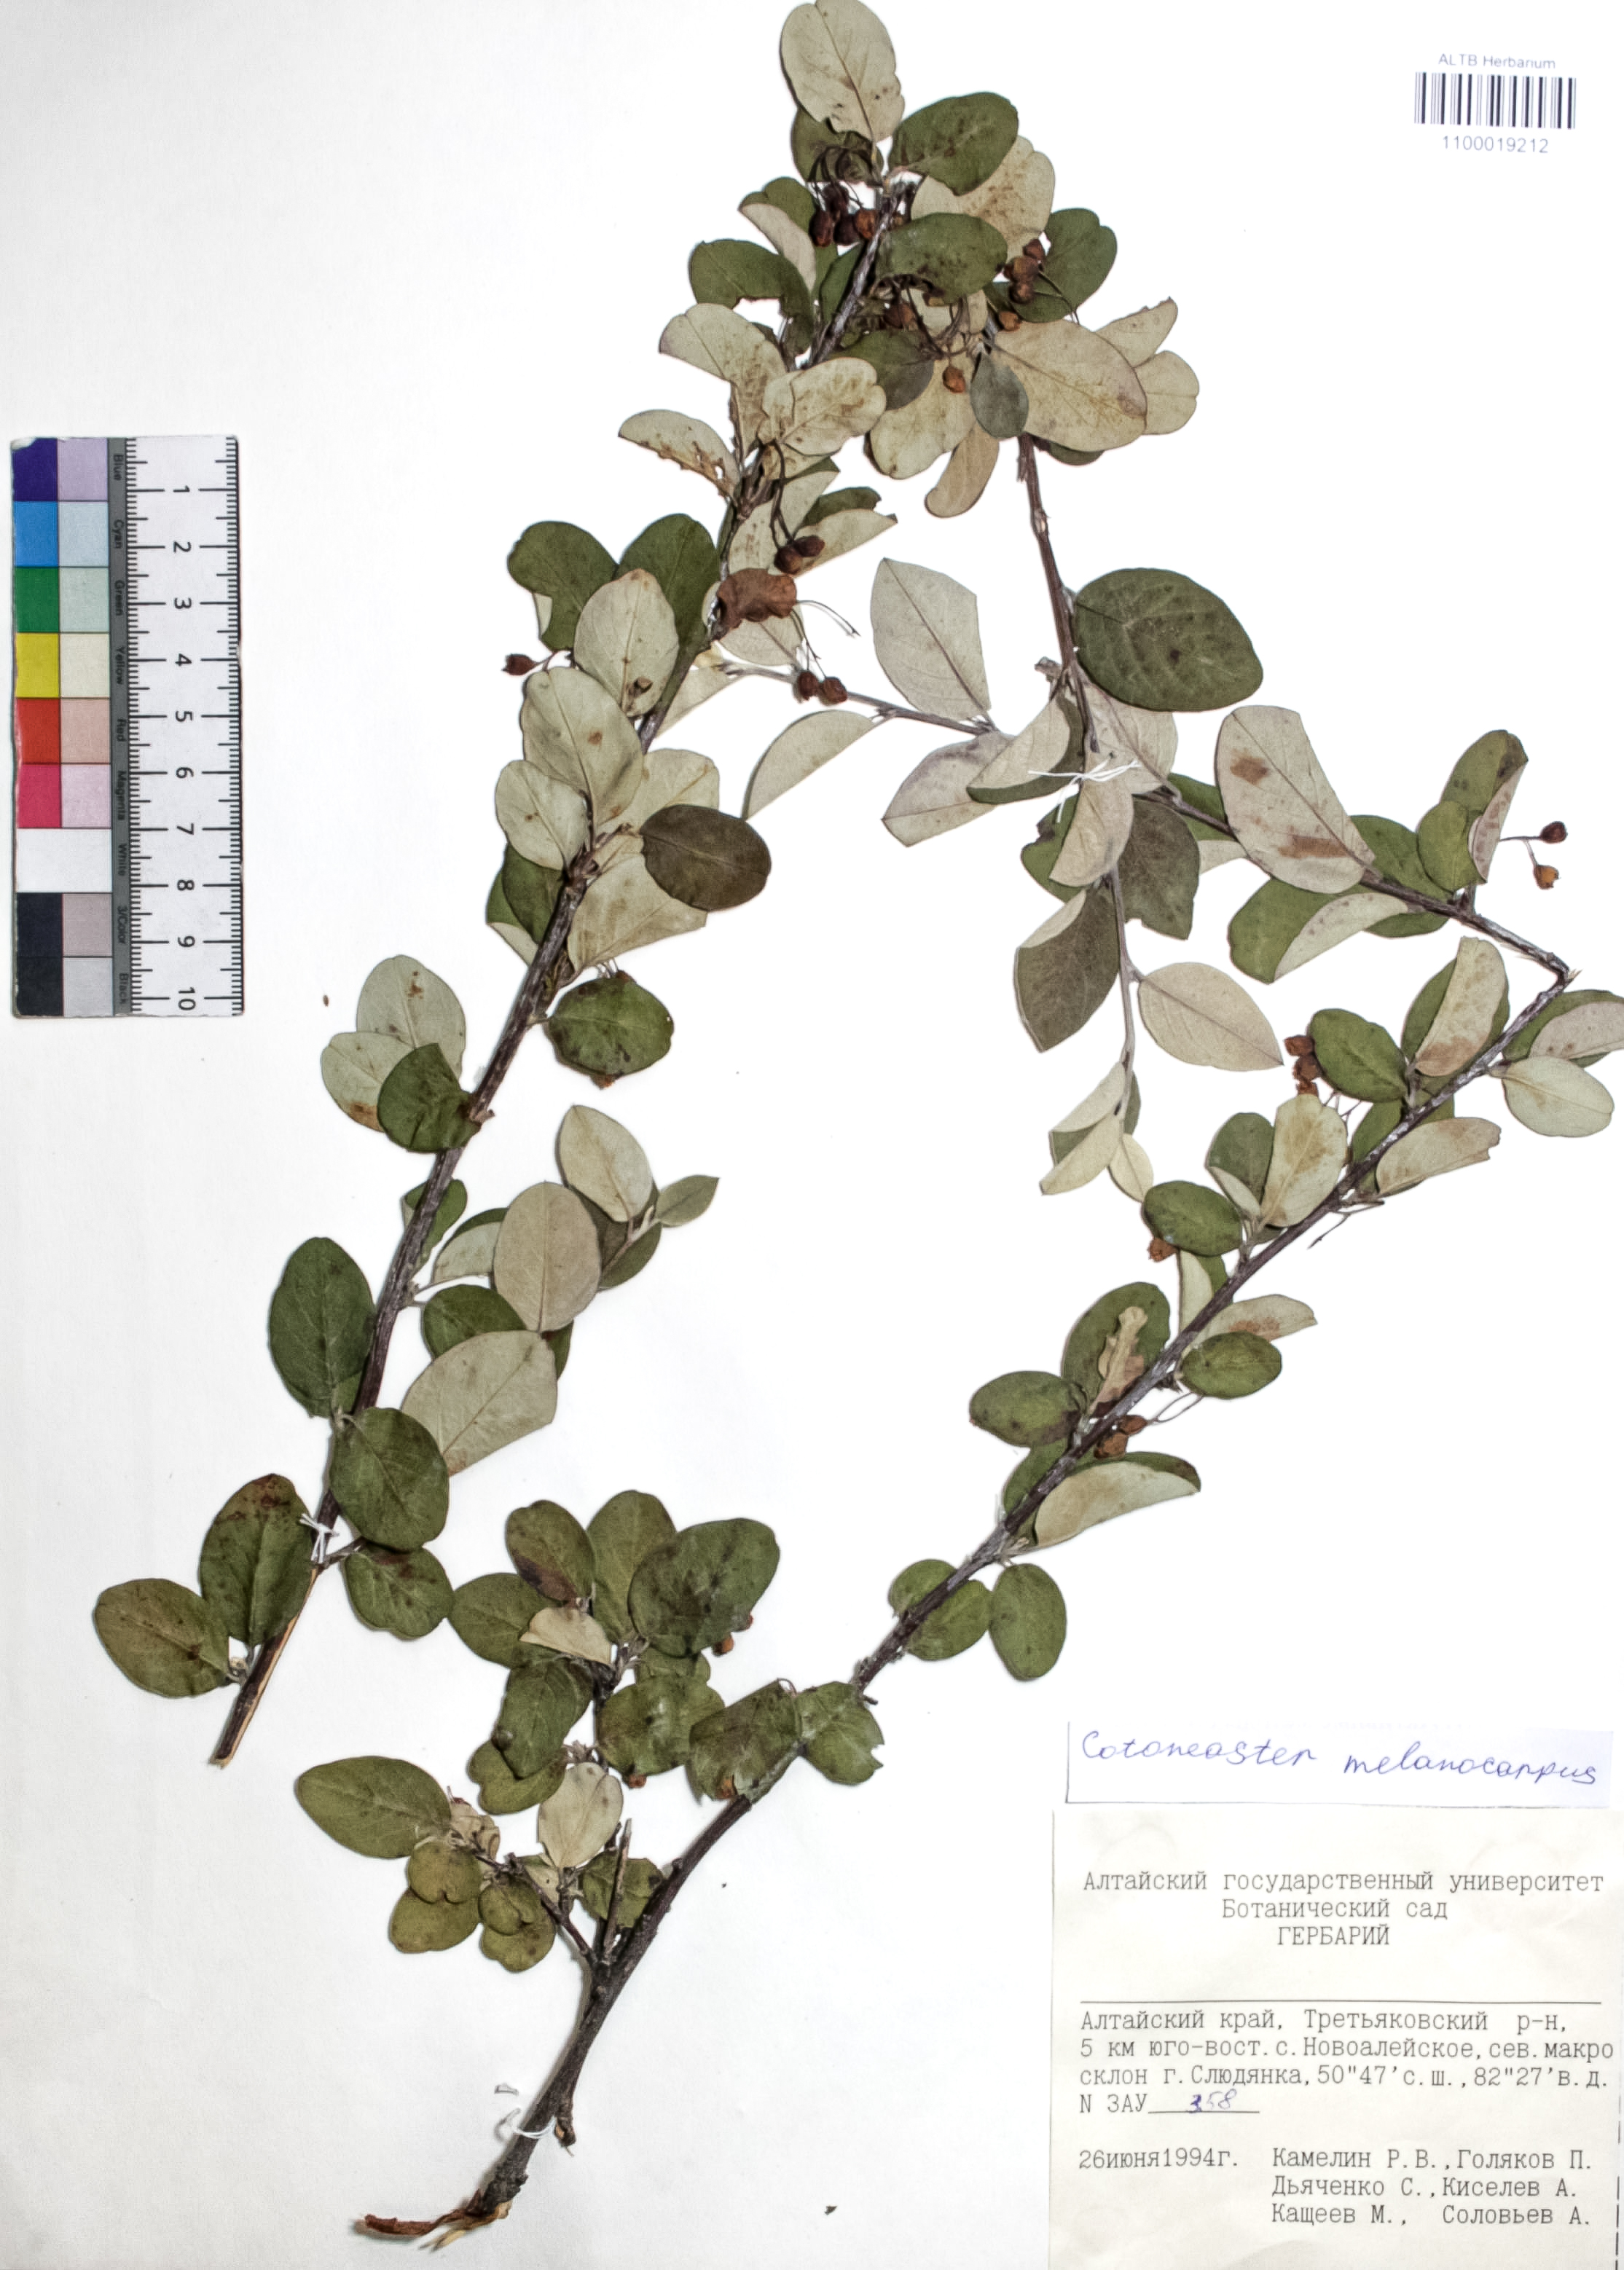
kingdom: Plantae
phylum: Tracheophyta
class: Magnoliopsida
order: Rosales
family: Rosaceae
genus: Cotoneaster
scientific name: Cotoneaster niger
